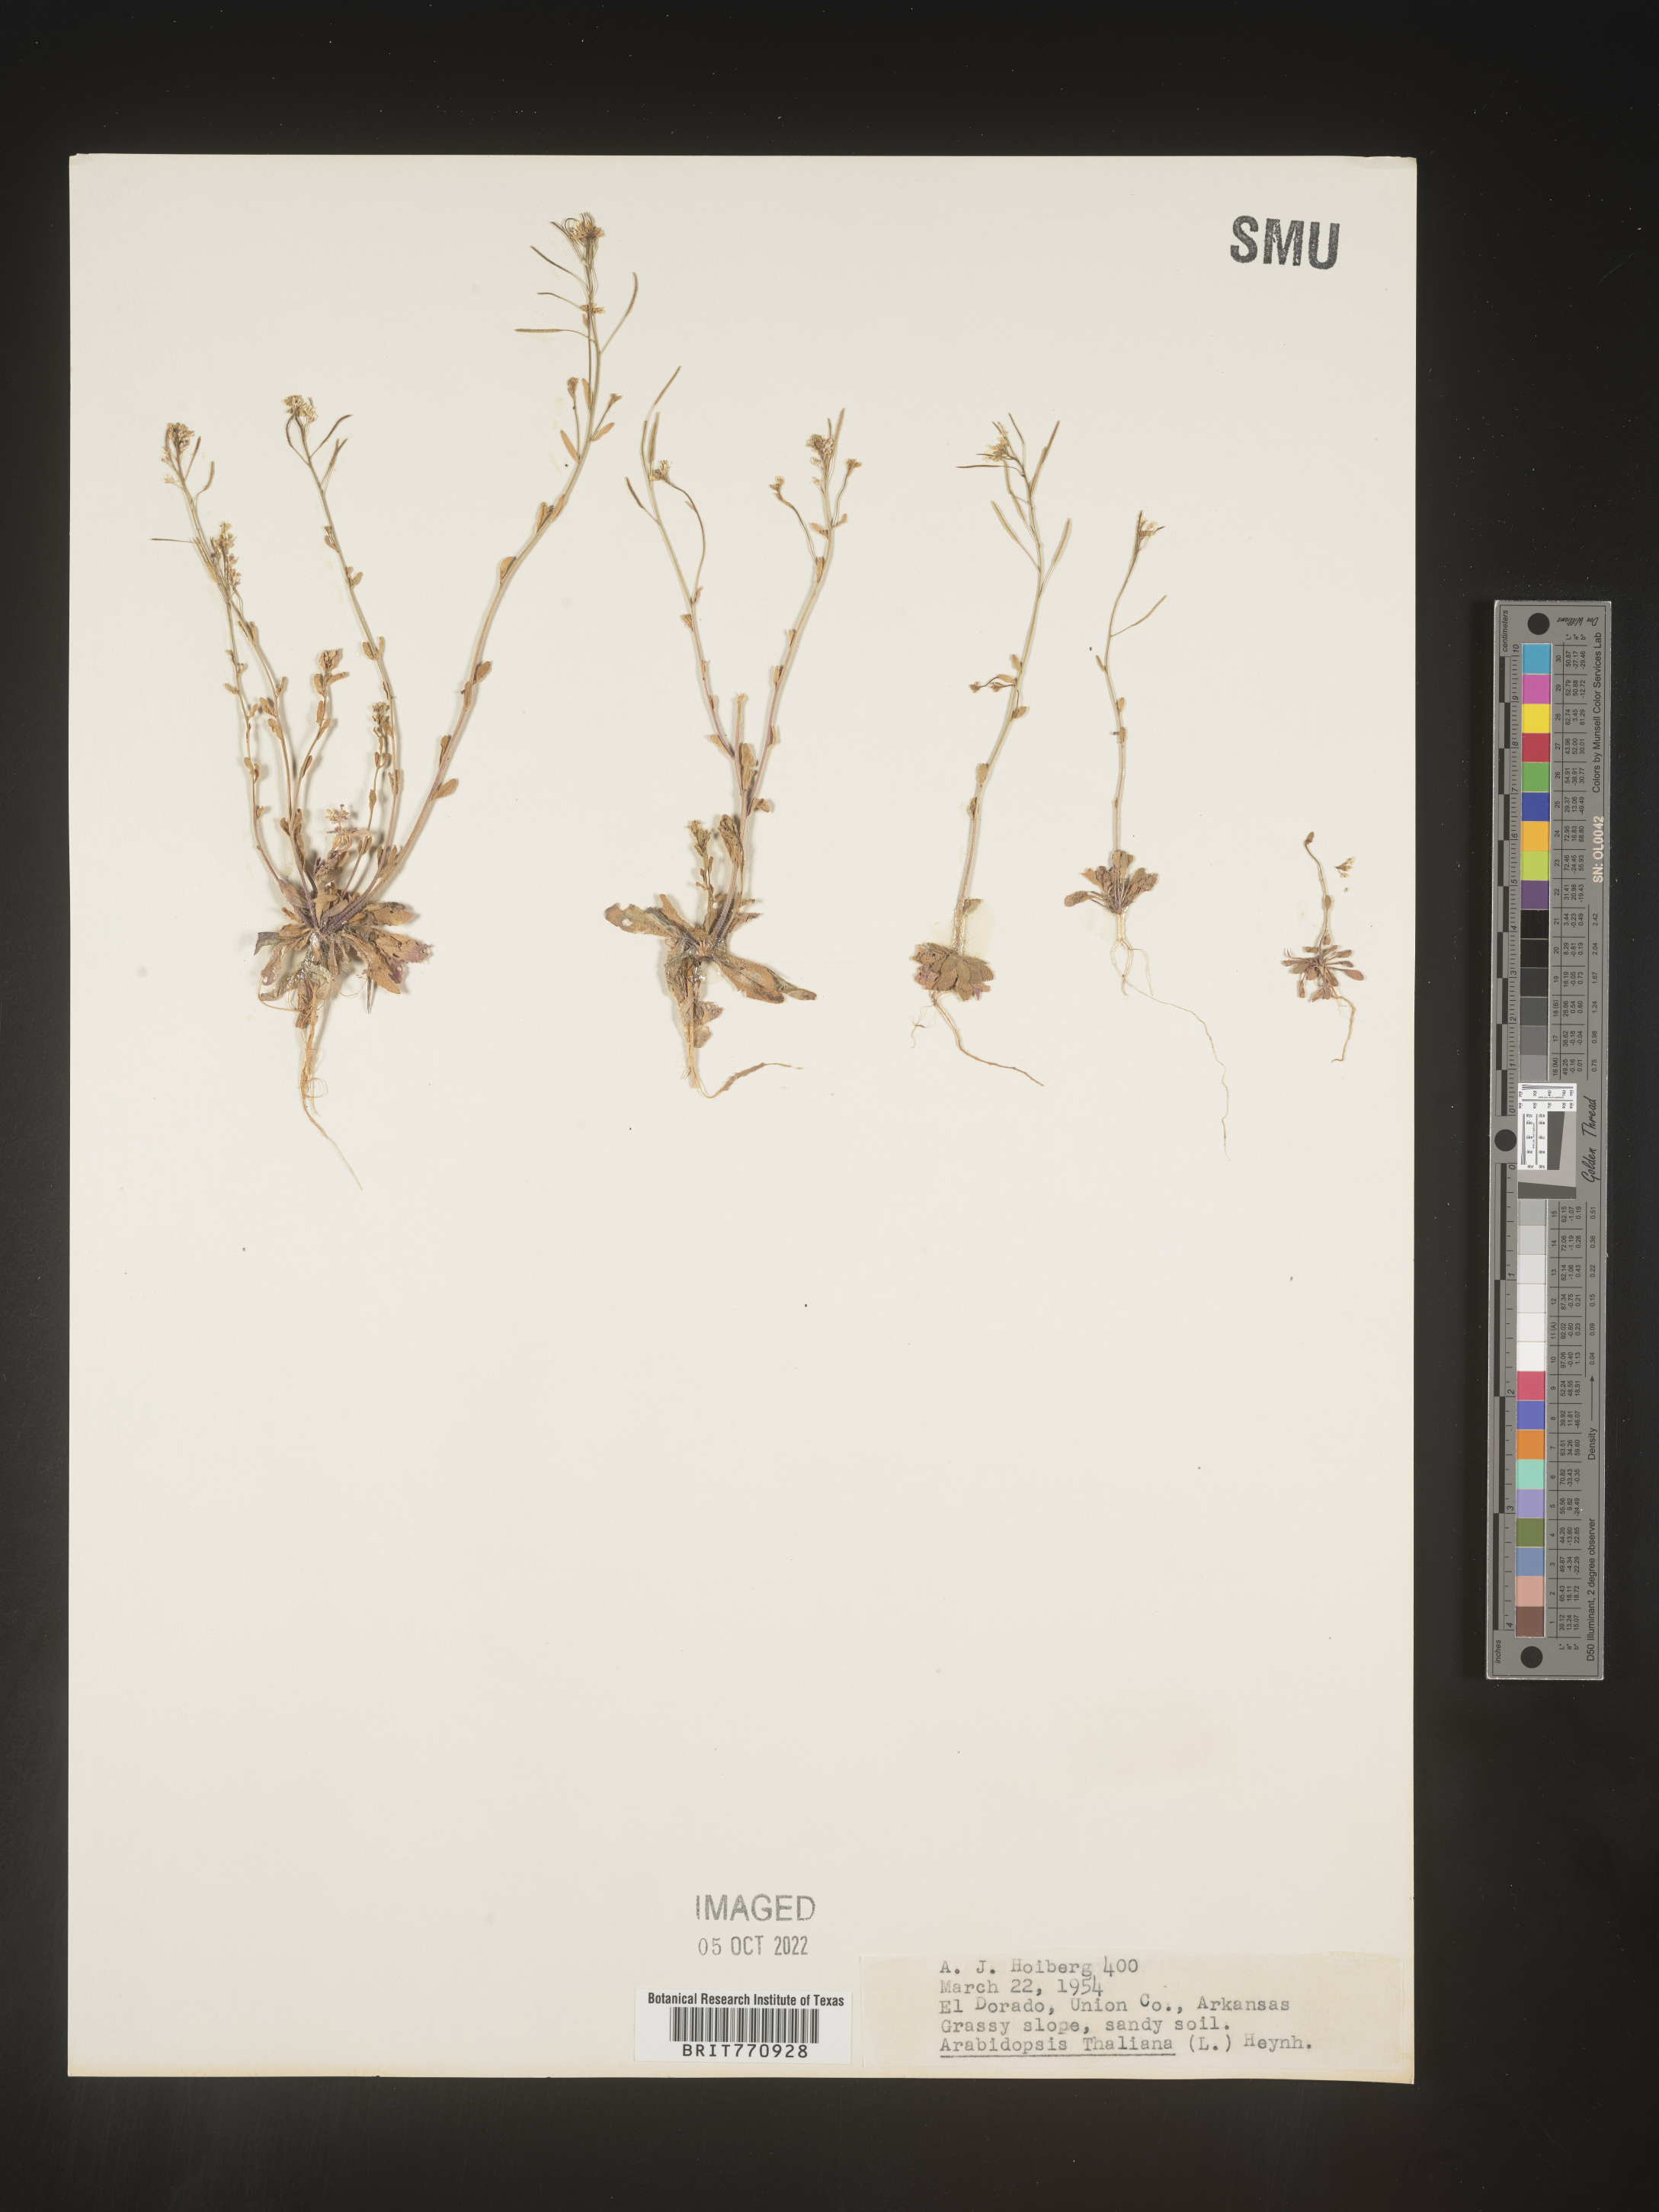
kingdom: Plantae
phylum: Tracheophyta
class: Magnoliopsida
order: Brassicales
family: Brassicaceae
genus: Arabidopsis
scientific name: Arabidopsis thaliana
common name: Thale cress
